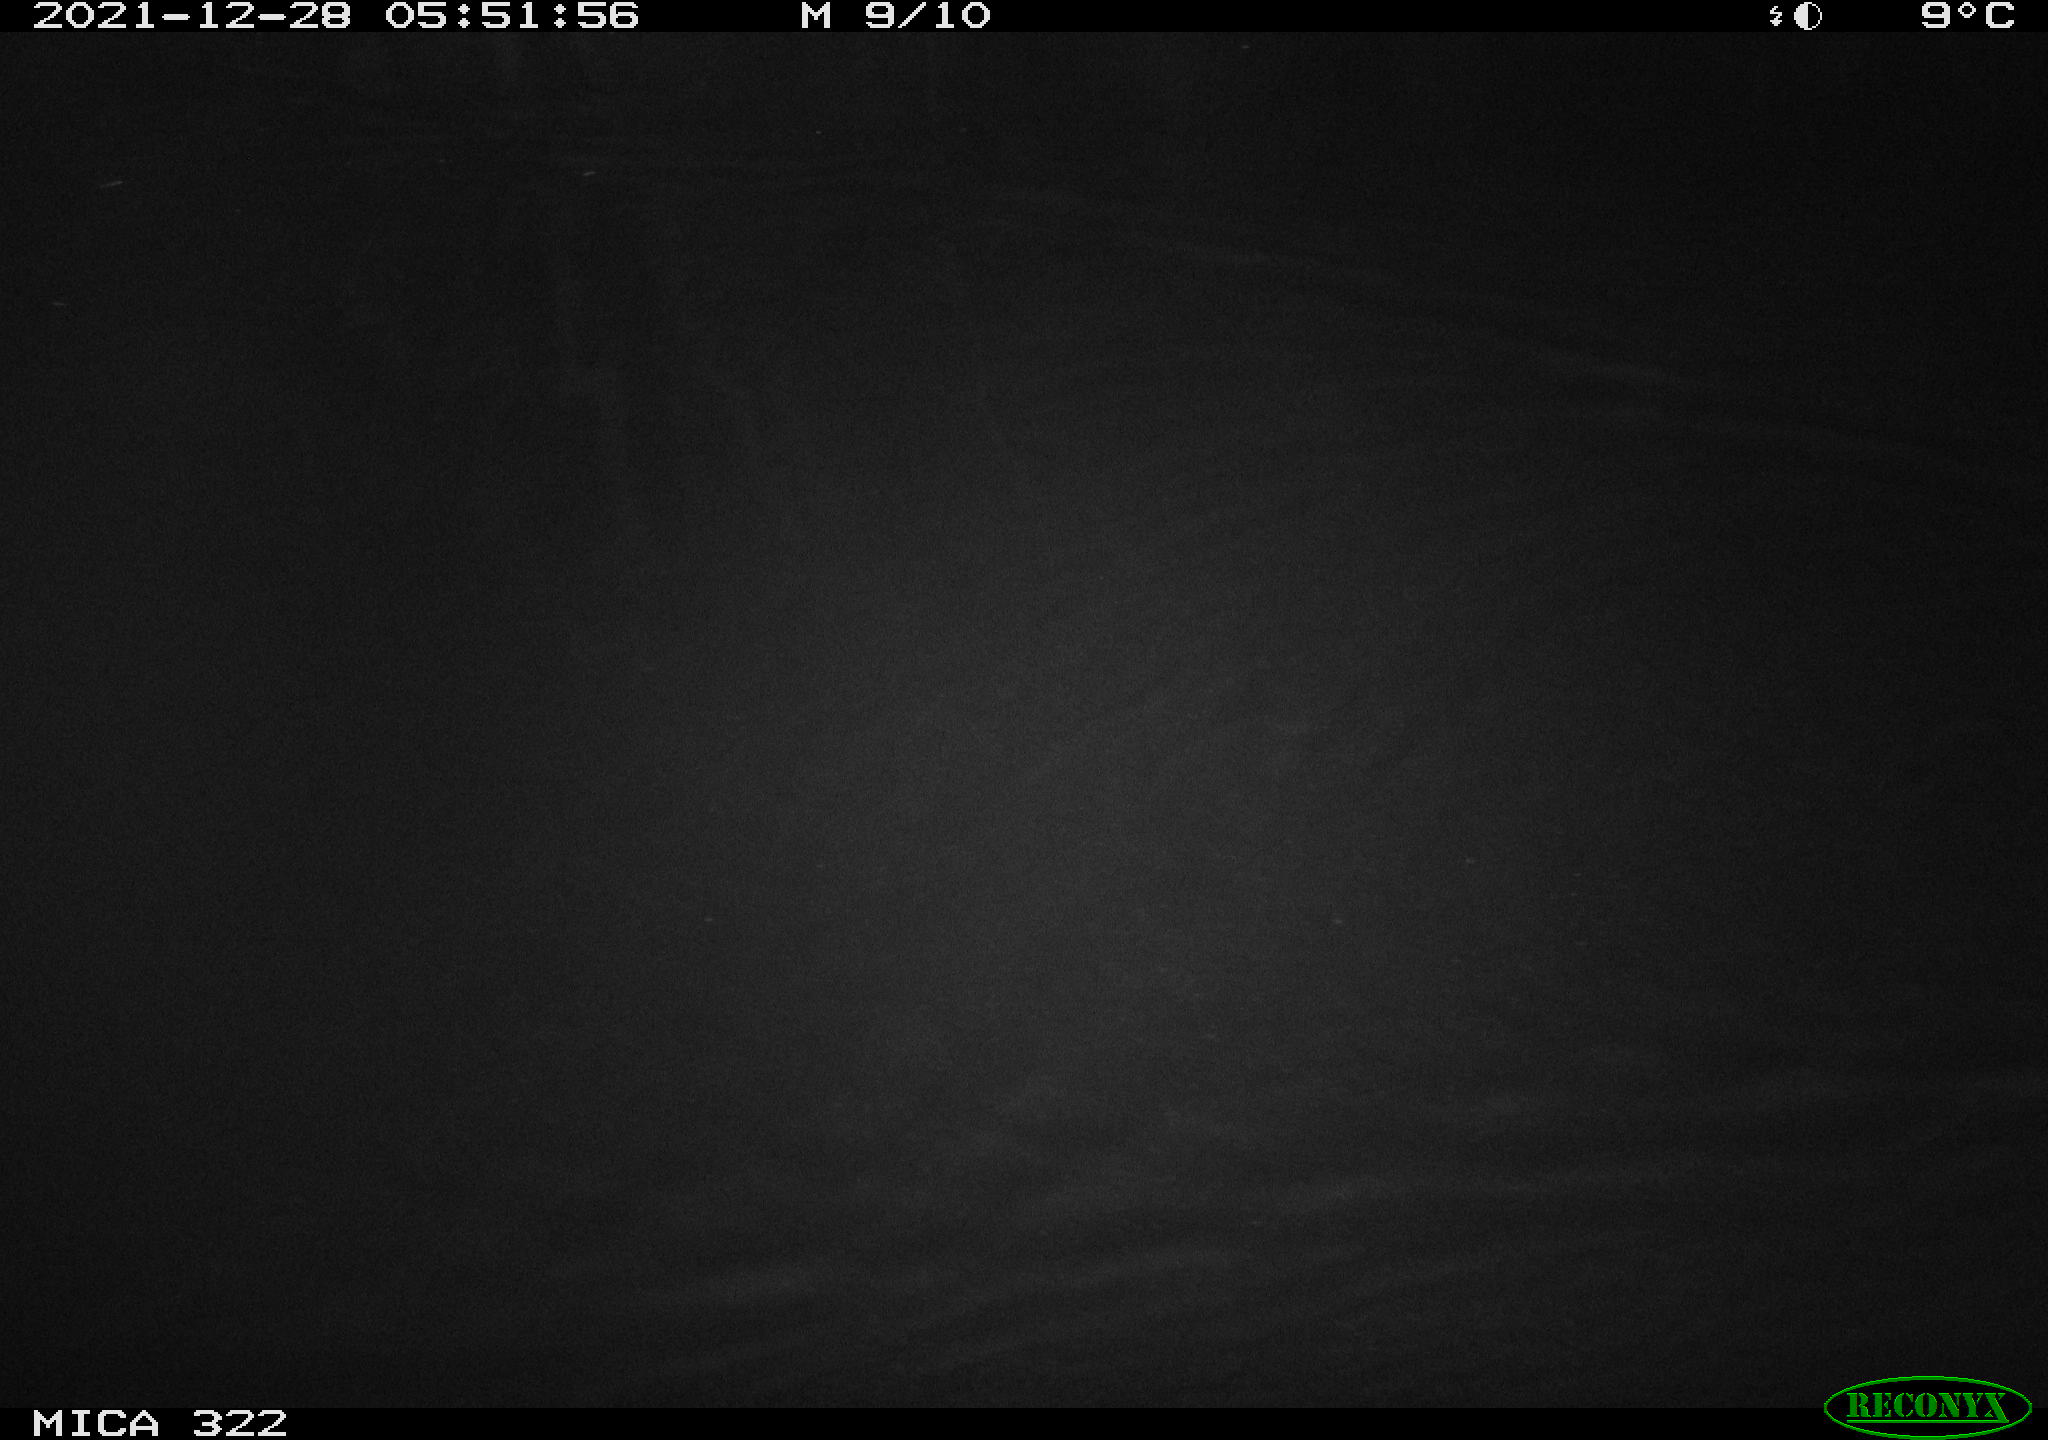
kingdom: Animalia
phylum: Chordata
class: Mammalia
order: Rodentia
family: Muridae
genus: Rattus
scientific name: Rattus norvegicus
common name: Brown rat
